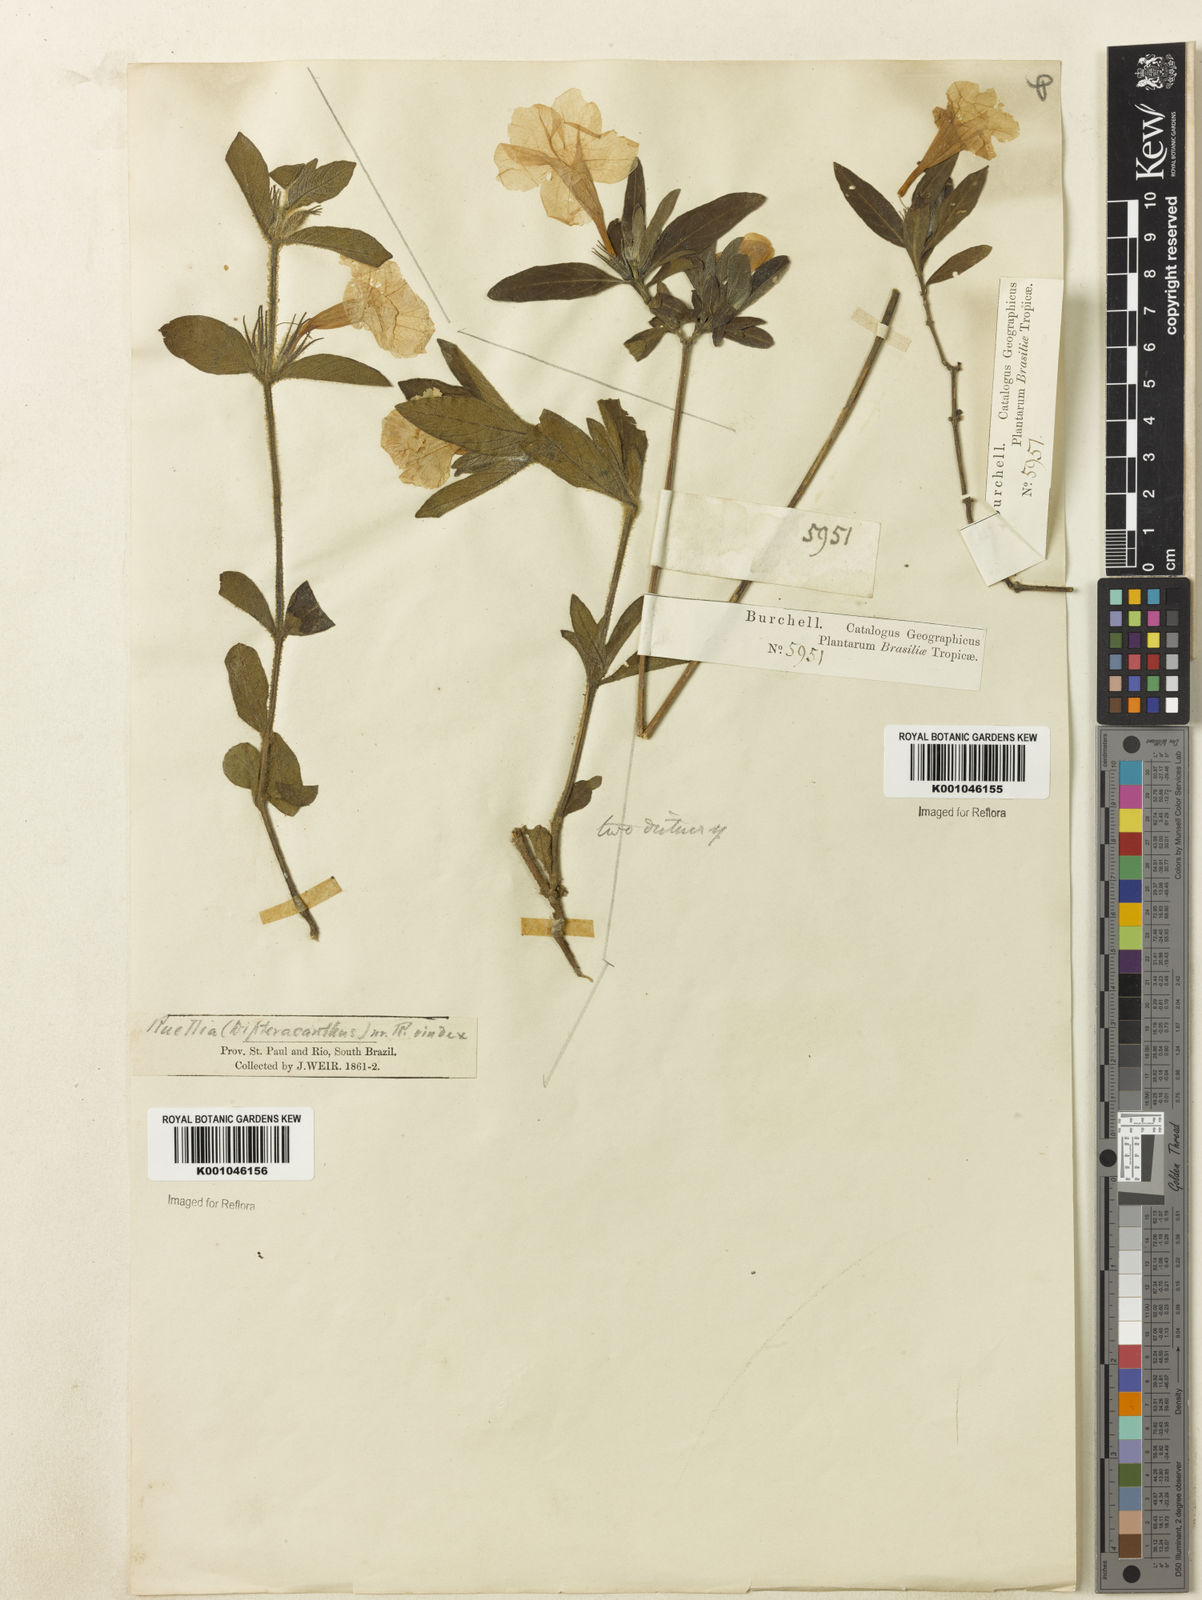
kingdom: Plantae
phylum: Tracheophyta
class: Magnoliopsida
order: Lamiales
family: Acanthaceae
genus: Ruellia
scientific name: Ruellia
